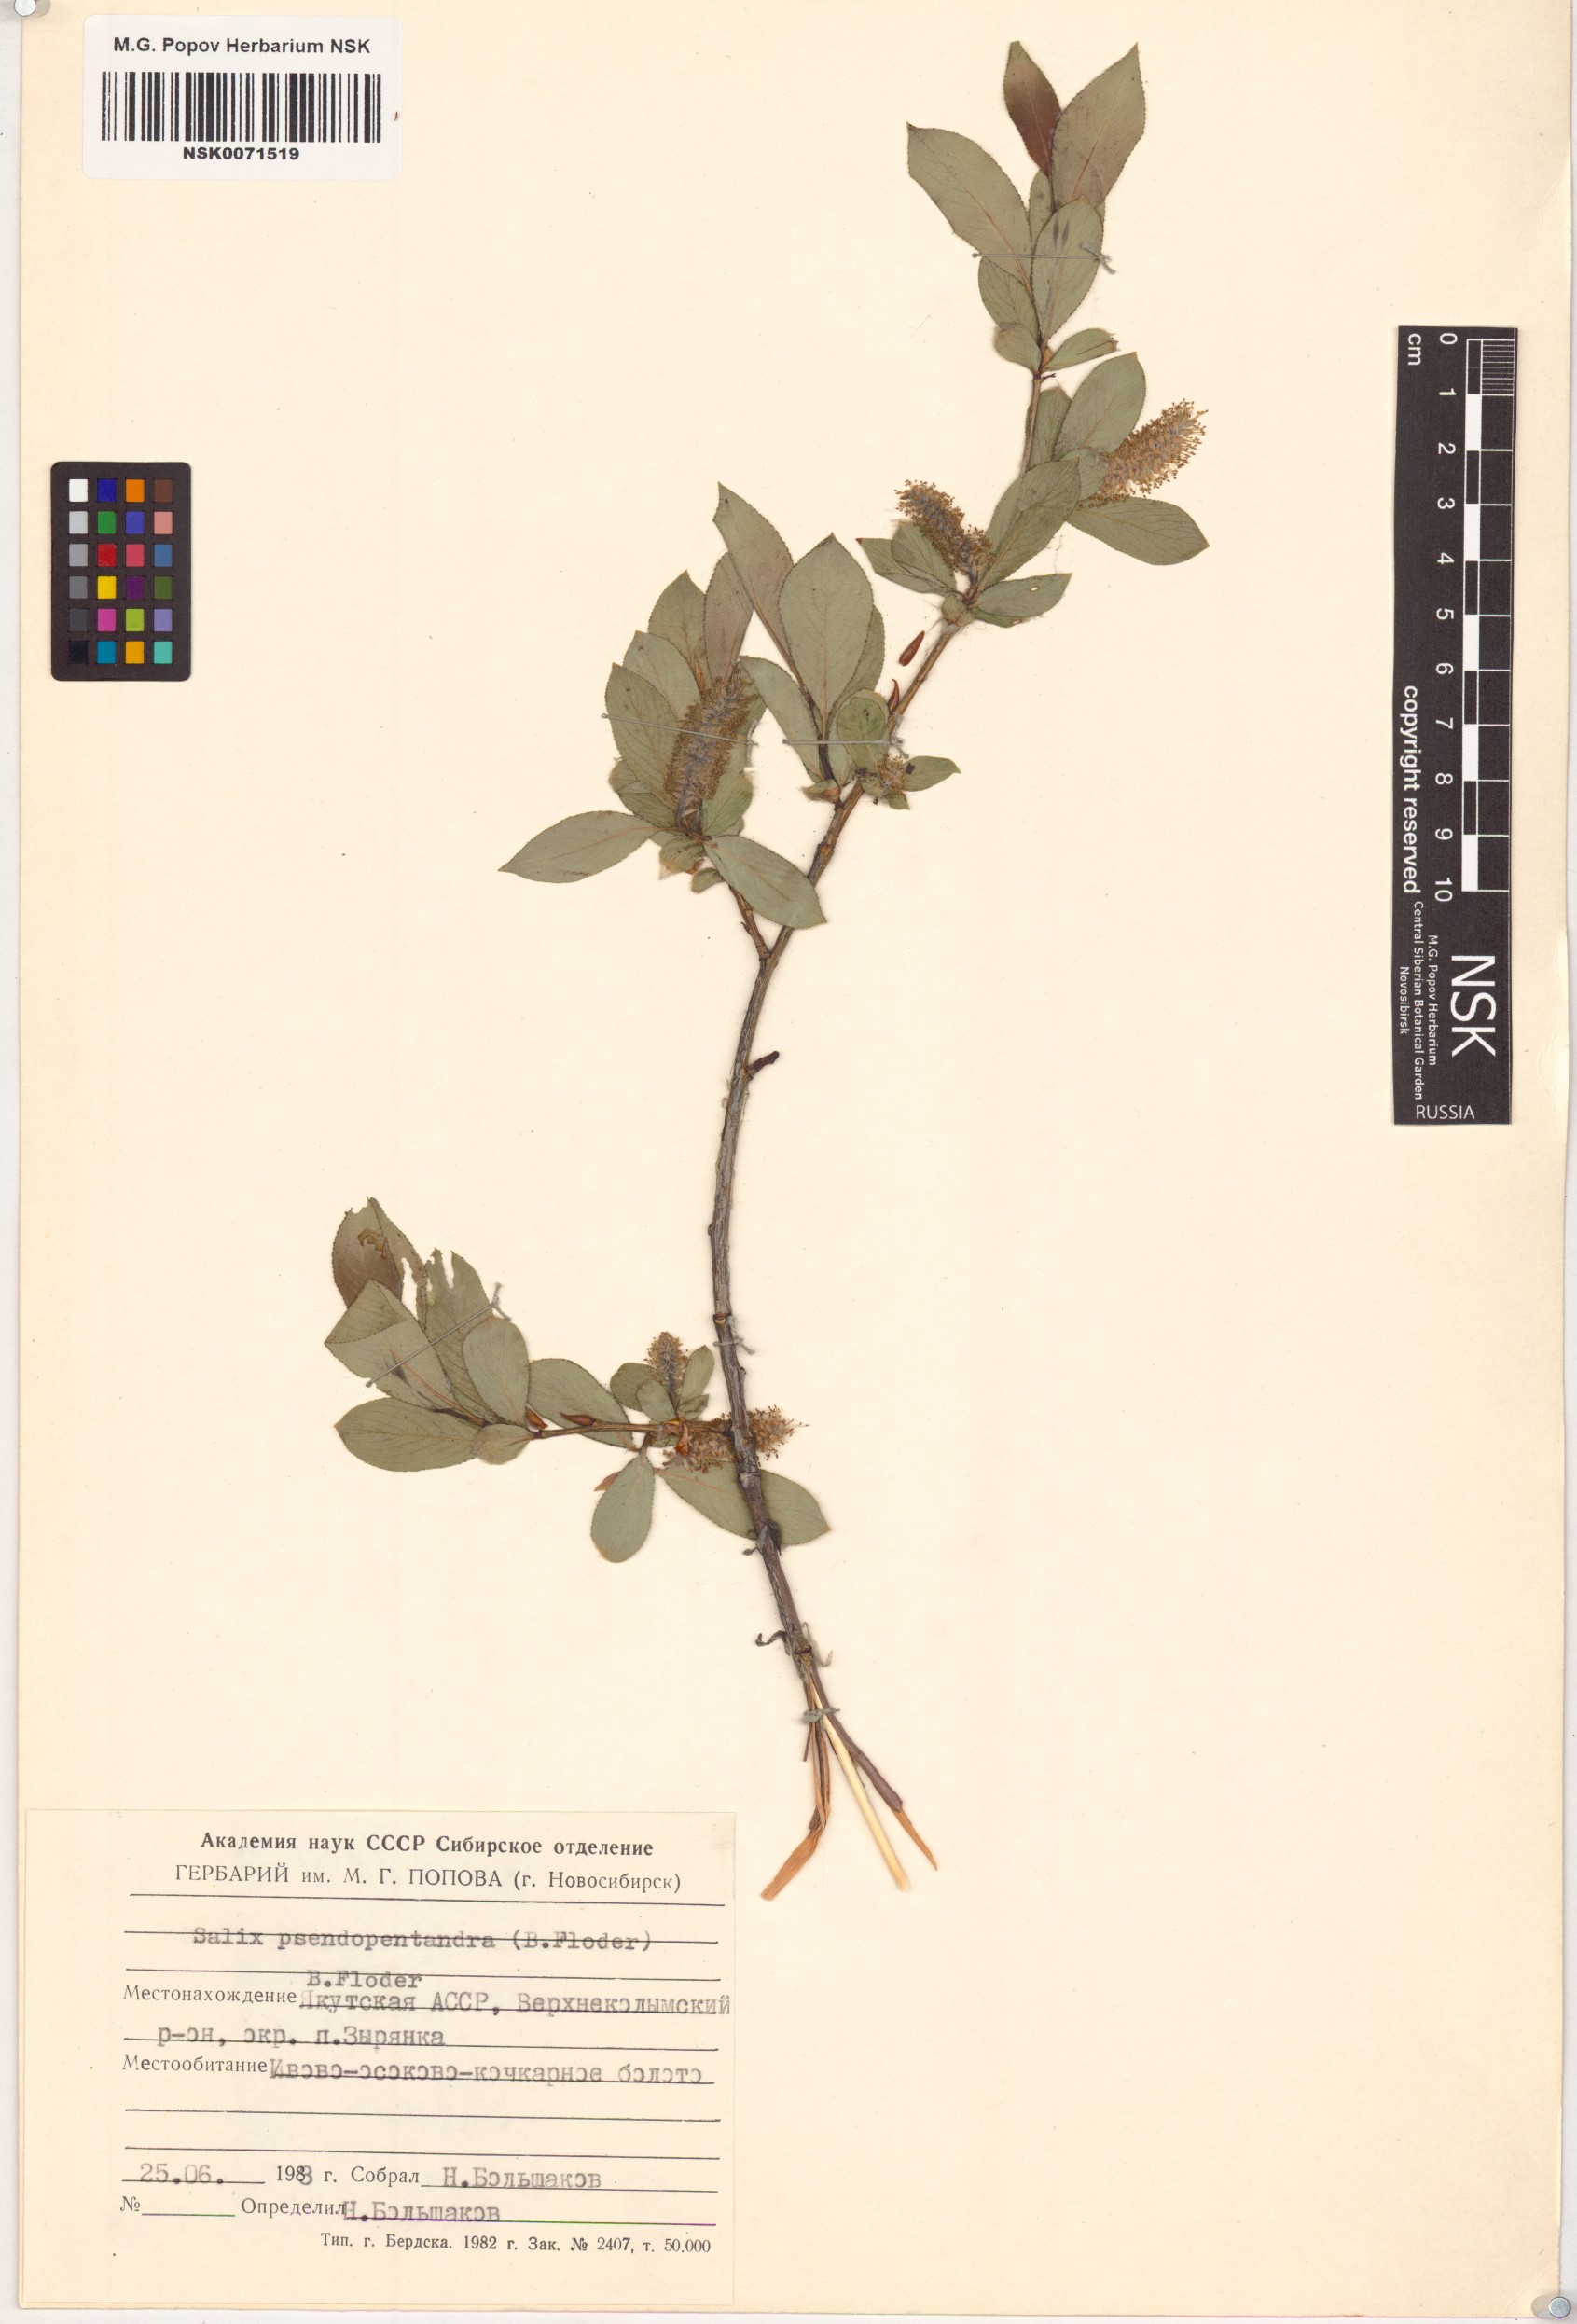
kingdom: Plantae
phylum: Tracheophyta
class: Magnoliopsida
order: Malpighiales
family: Salicaceae
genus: Salix
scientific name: Salix pseudopentandra
